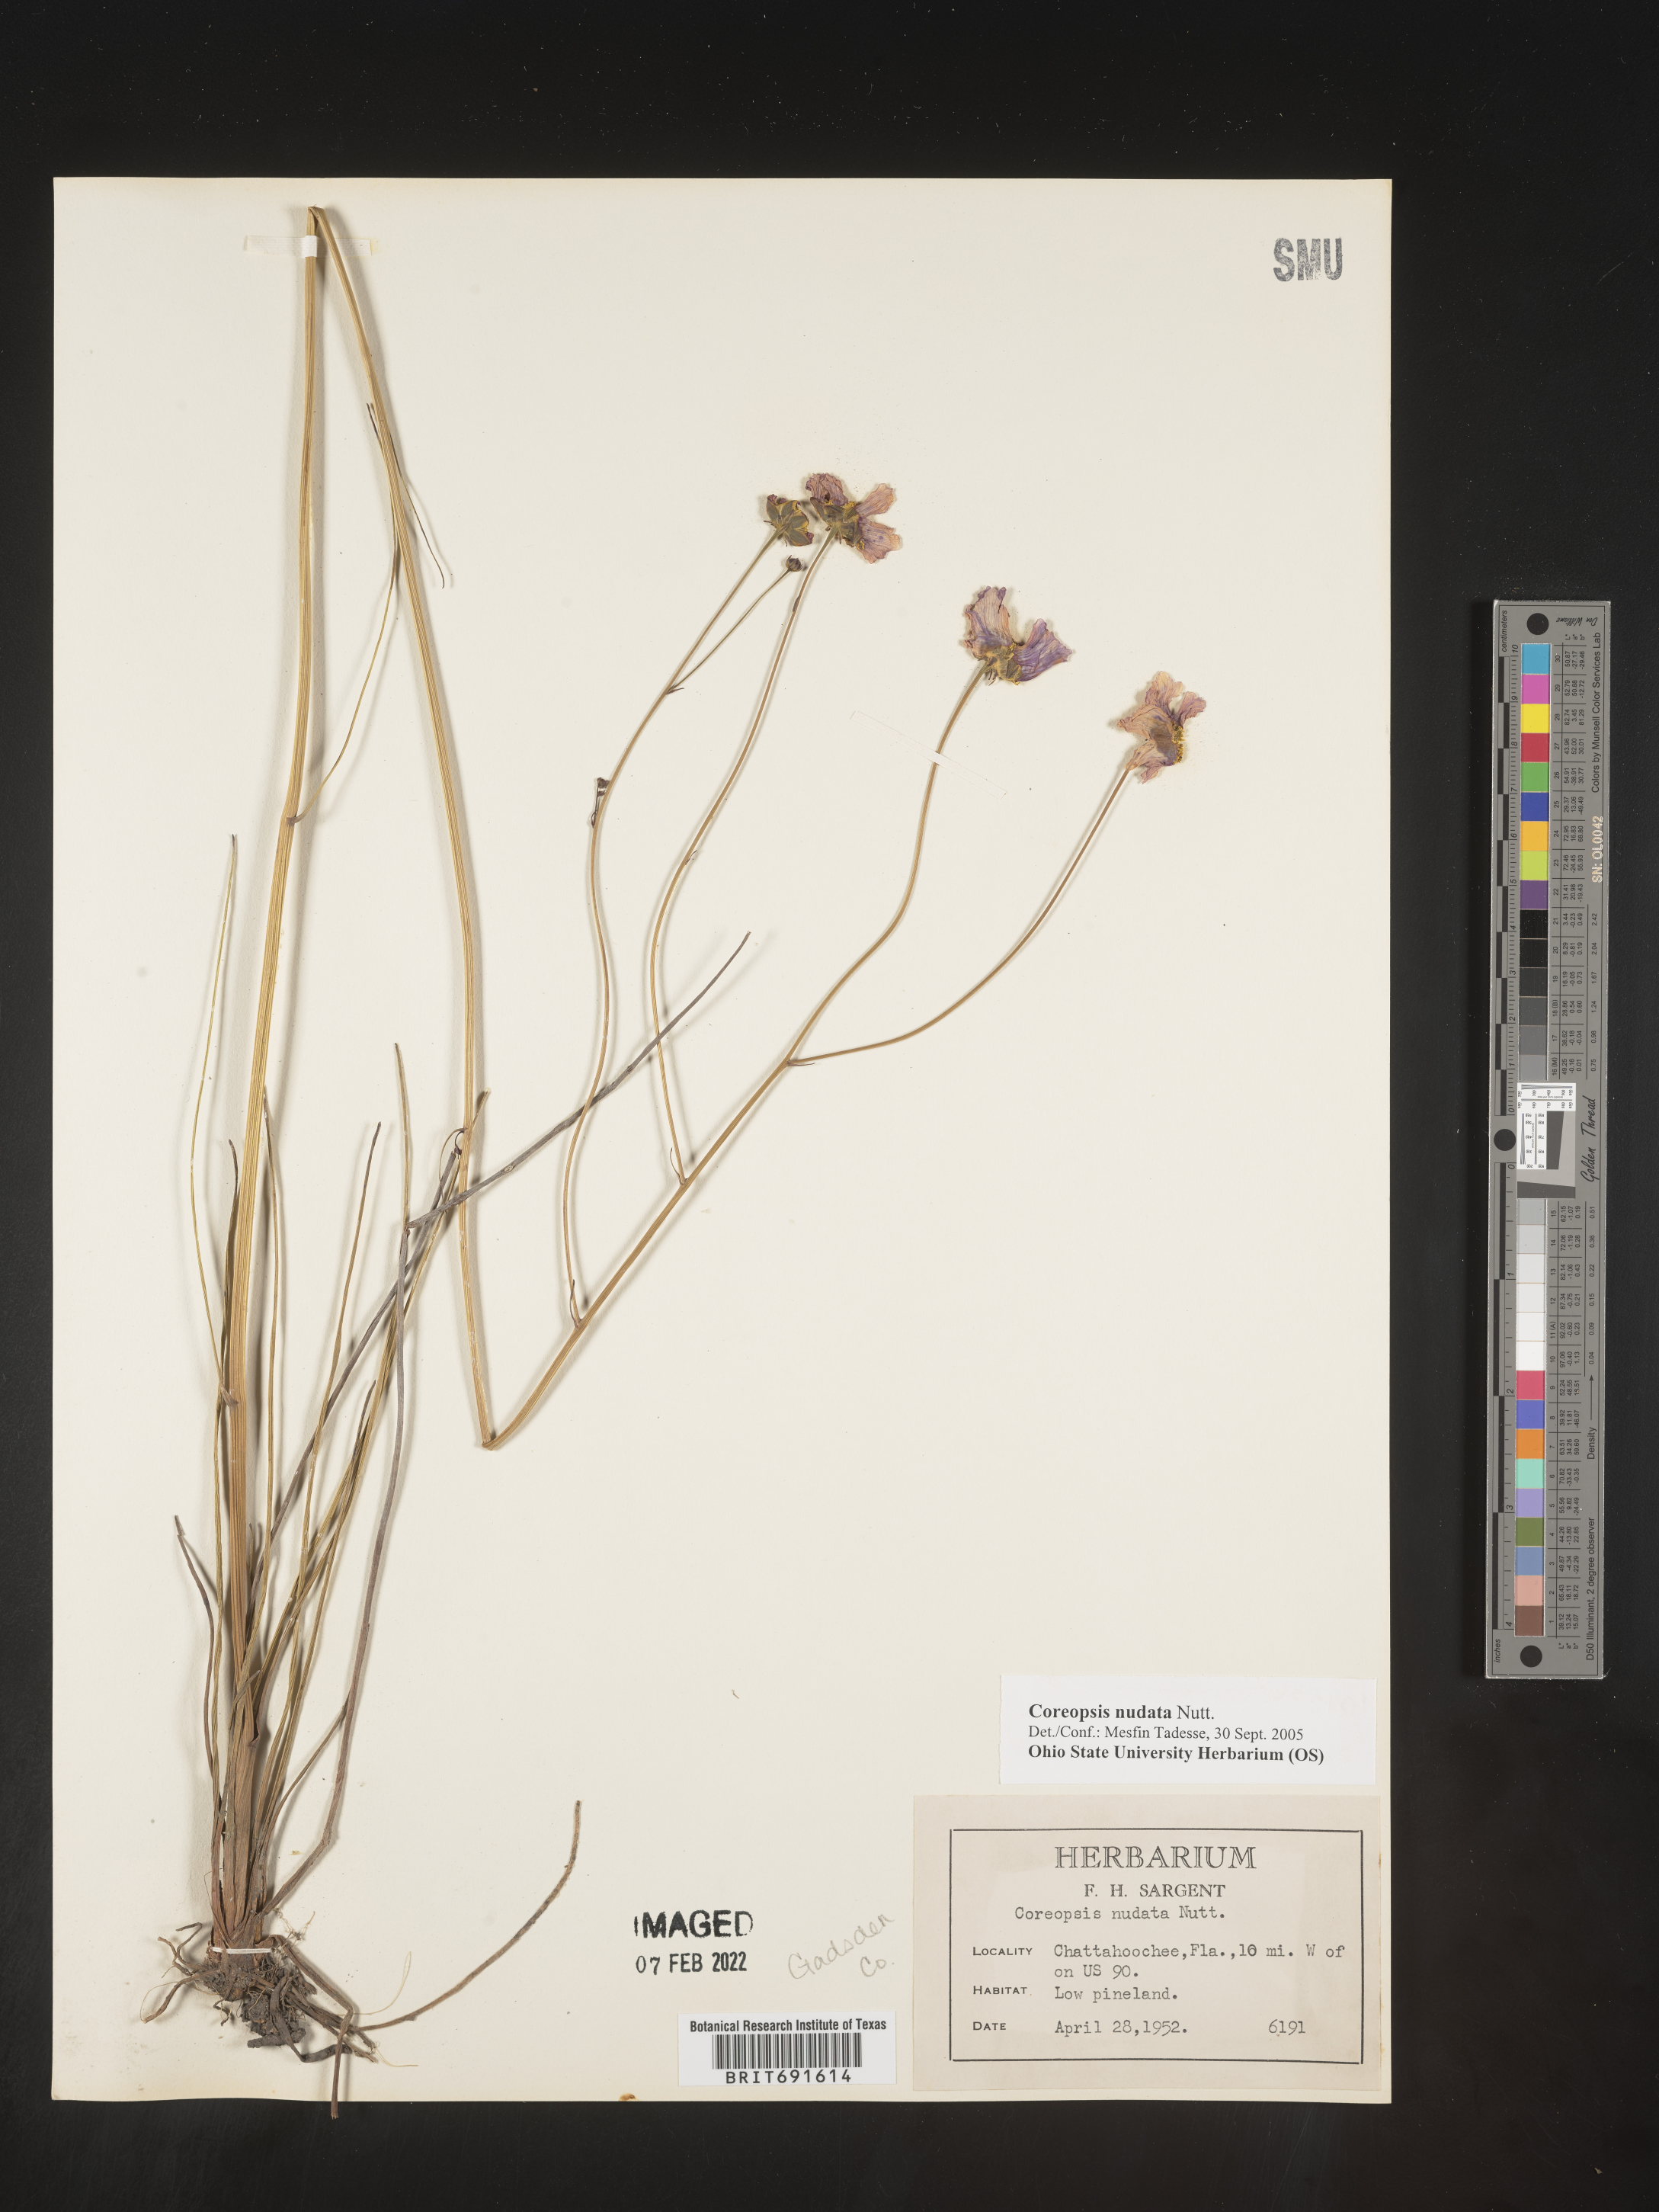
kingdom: Plantae
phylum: Tracheophyta
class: Magnoliopsida
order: Asterales
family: Asteraceae
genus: Coreopsis
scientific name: Coreopsis nudata
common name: Purple tickseed
